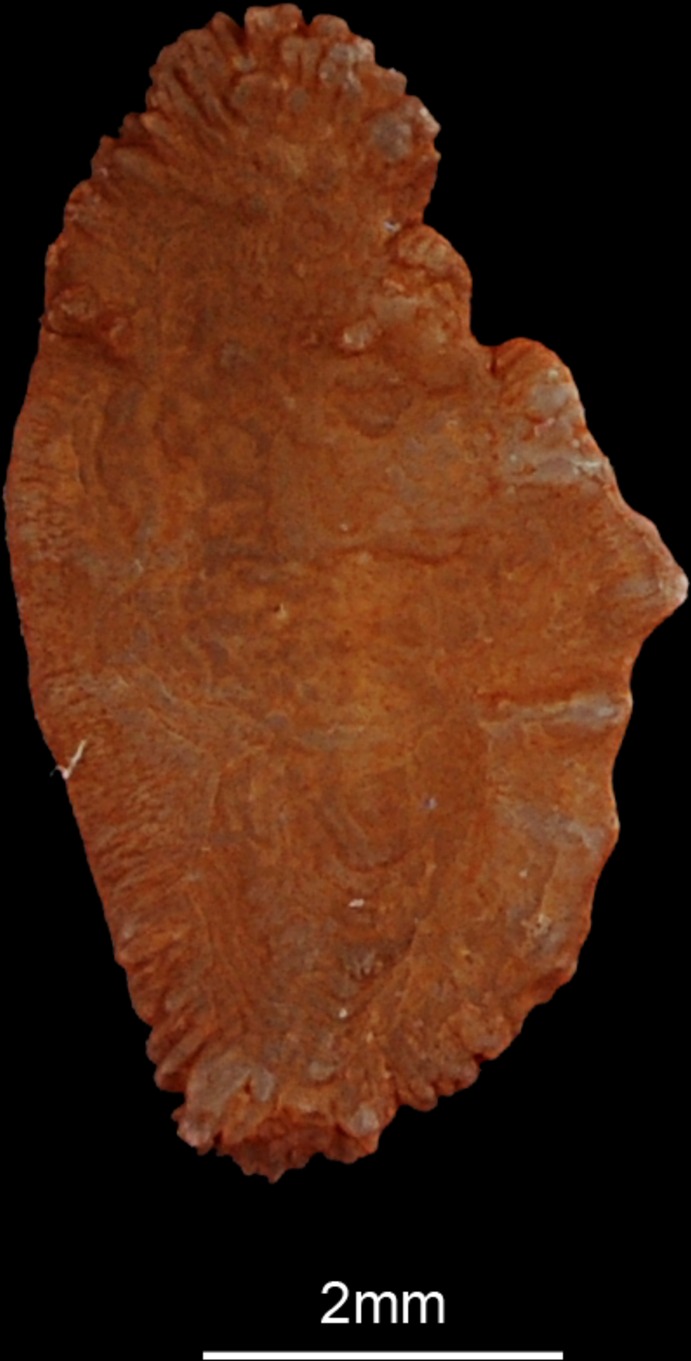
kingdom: Animalia
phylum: Chordata
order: Perciformes
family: Sparidae
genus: Crenidens
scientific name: Crenidens crenidens
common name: Karenteen seabream
